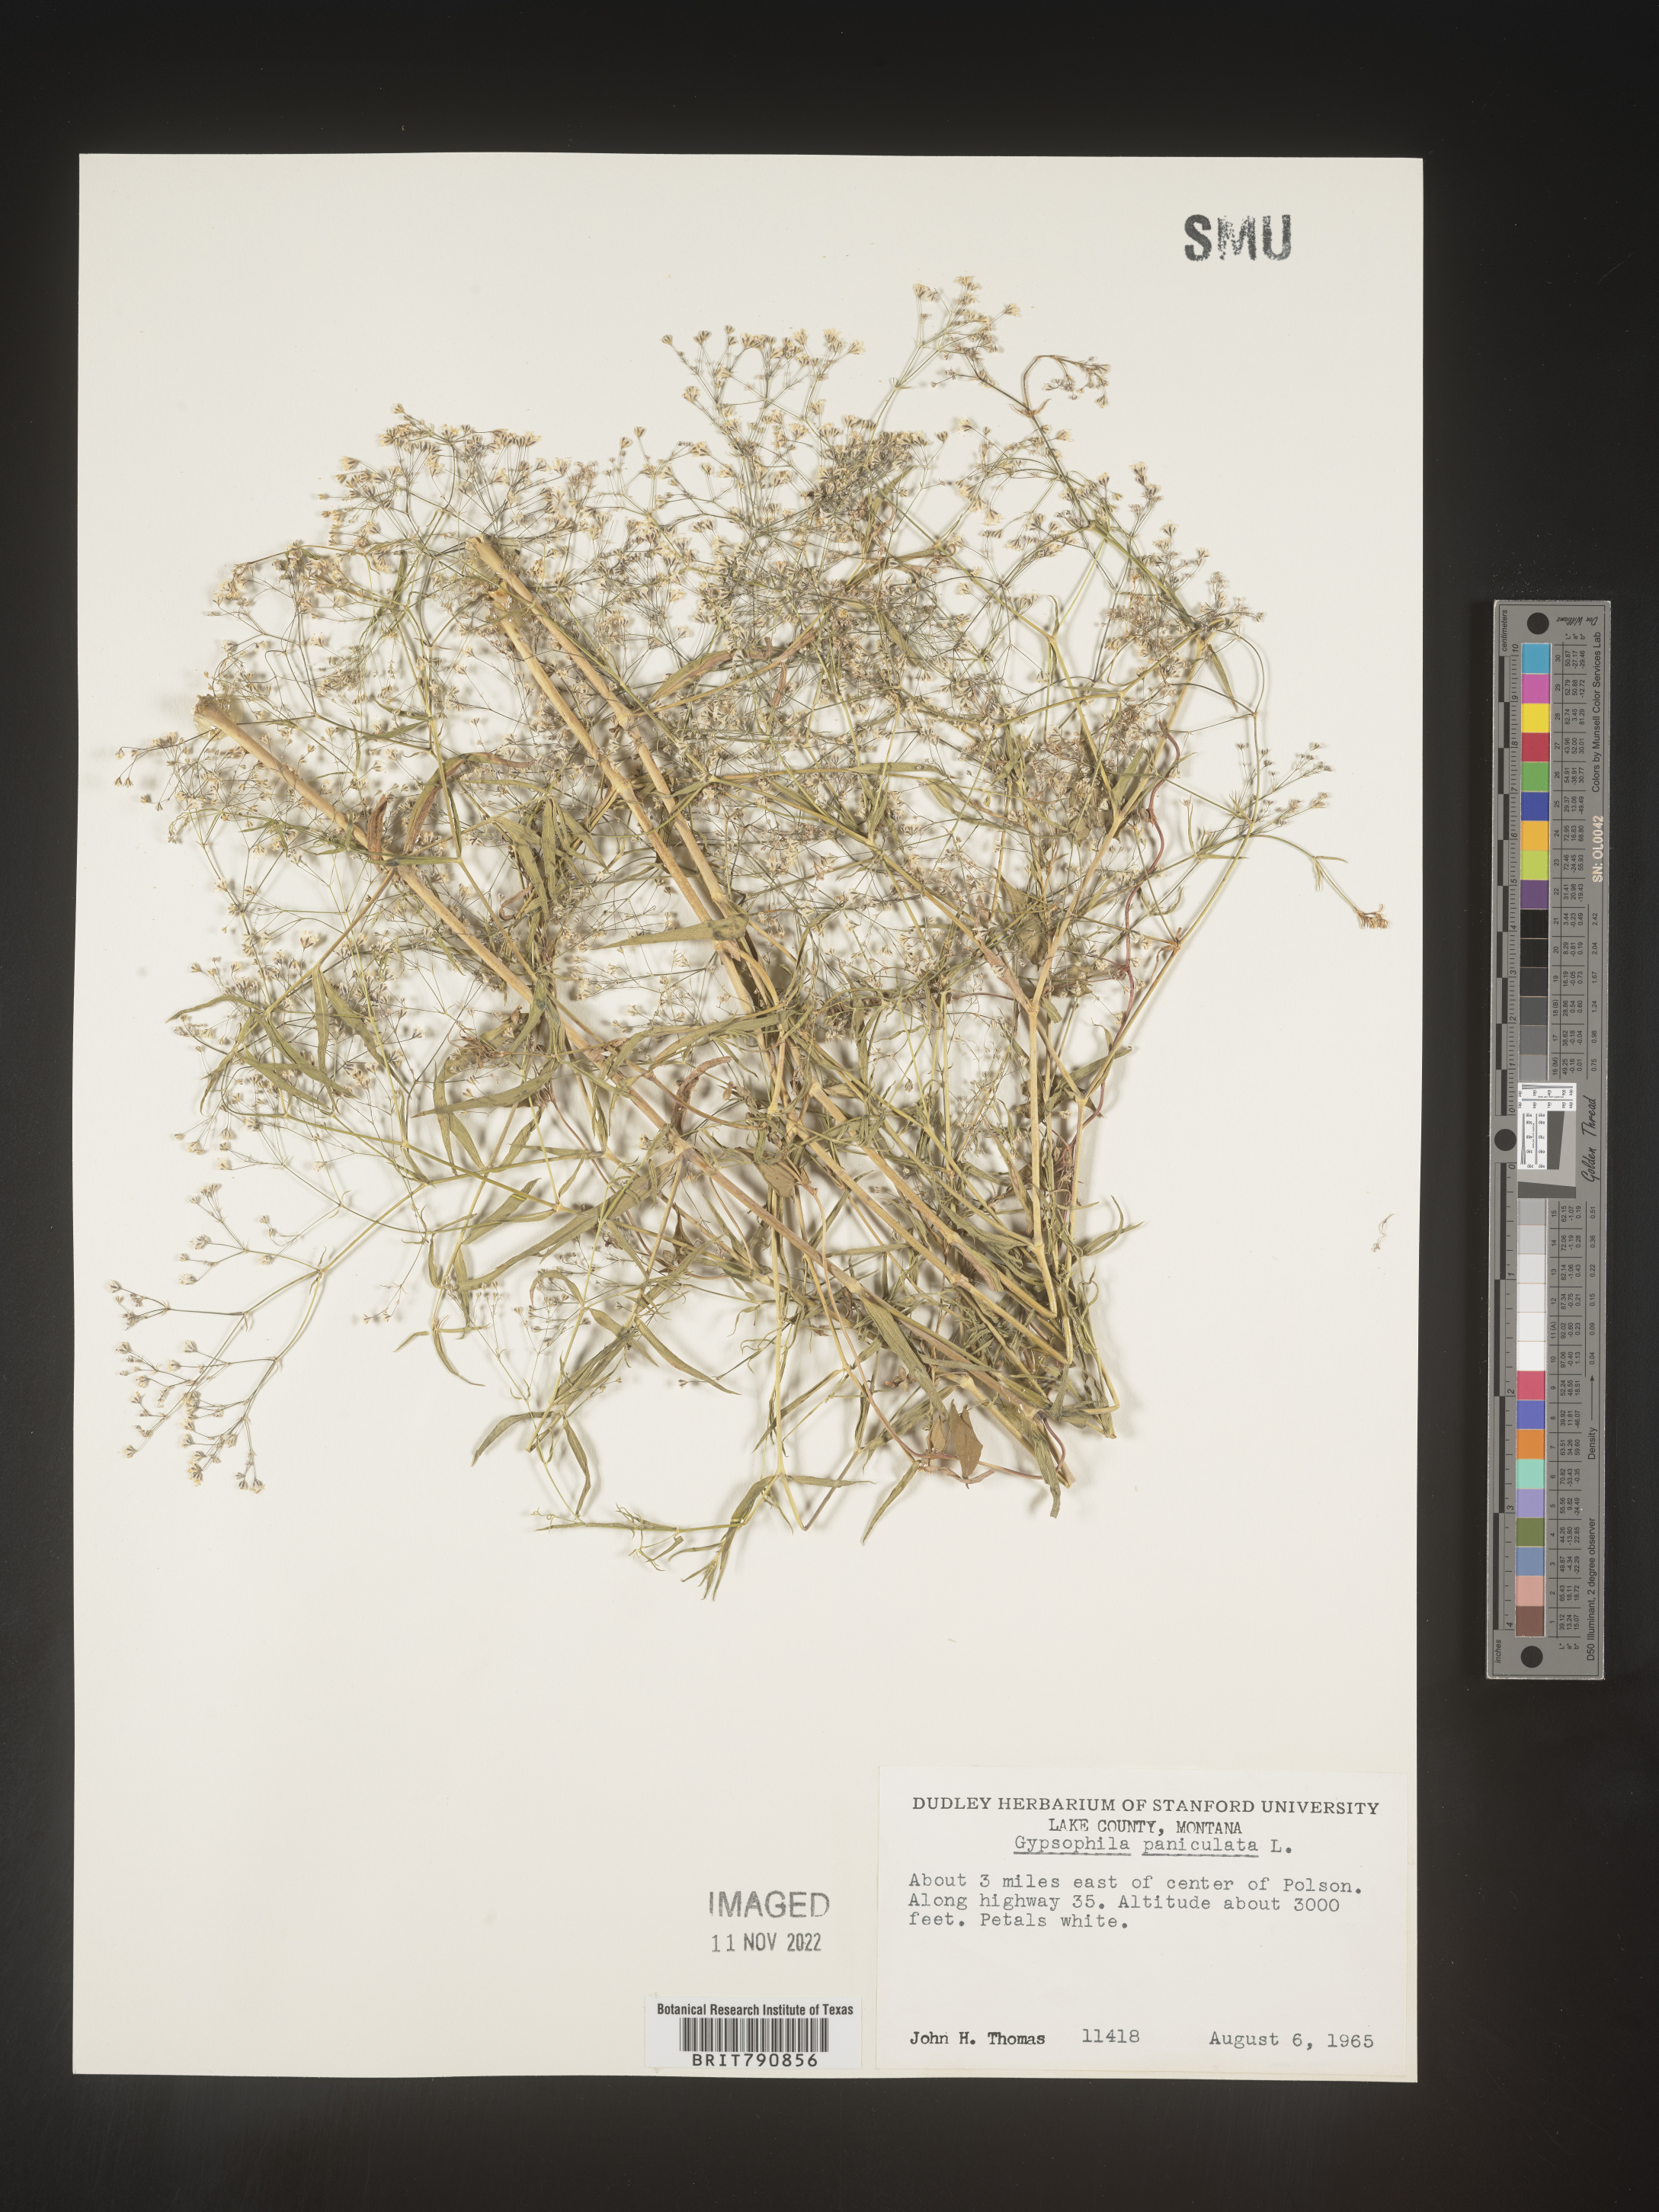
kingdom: Plantae
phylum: Tracheophyta
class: Magnoliopsida
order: Caryophyllales
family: Caryophyllaceae
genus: Gypsophila
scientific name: Gypsophila
